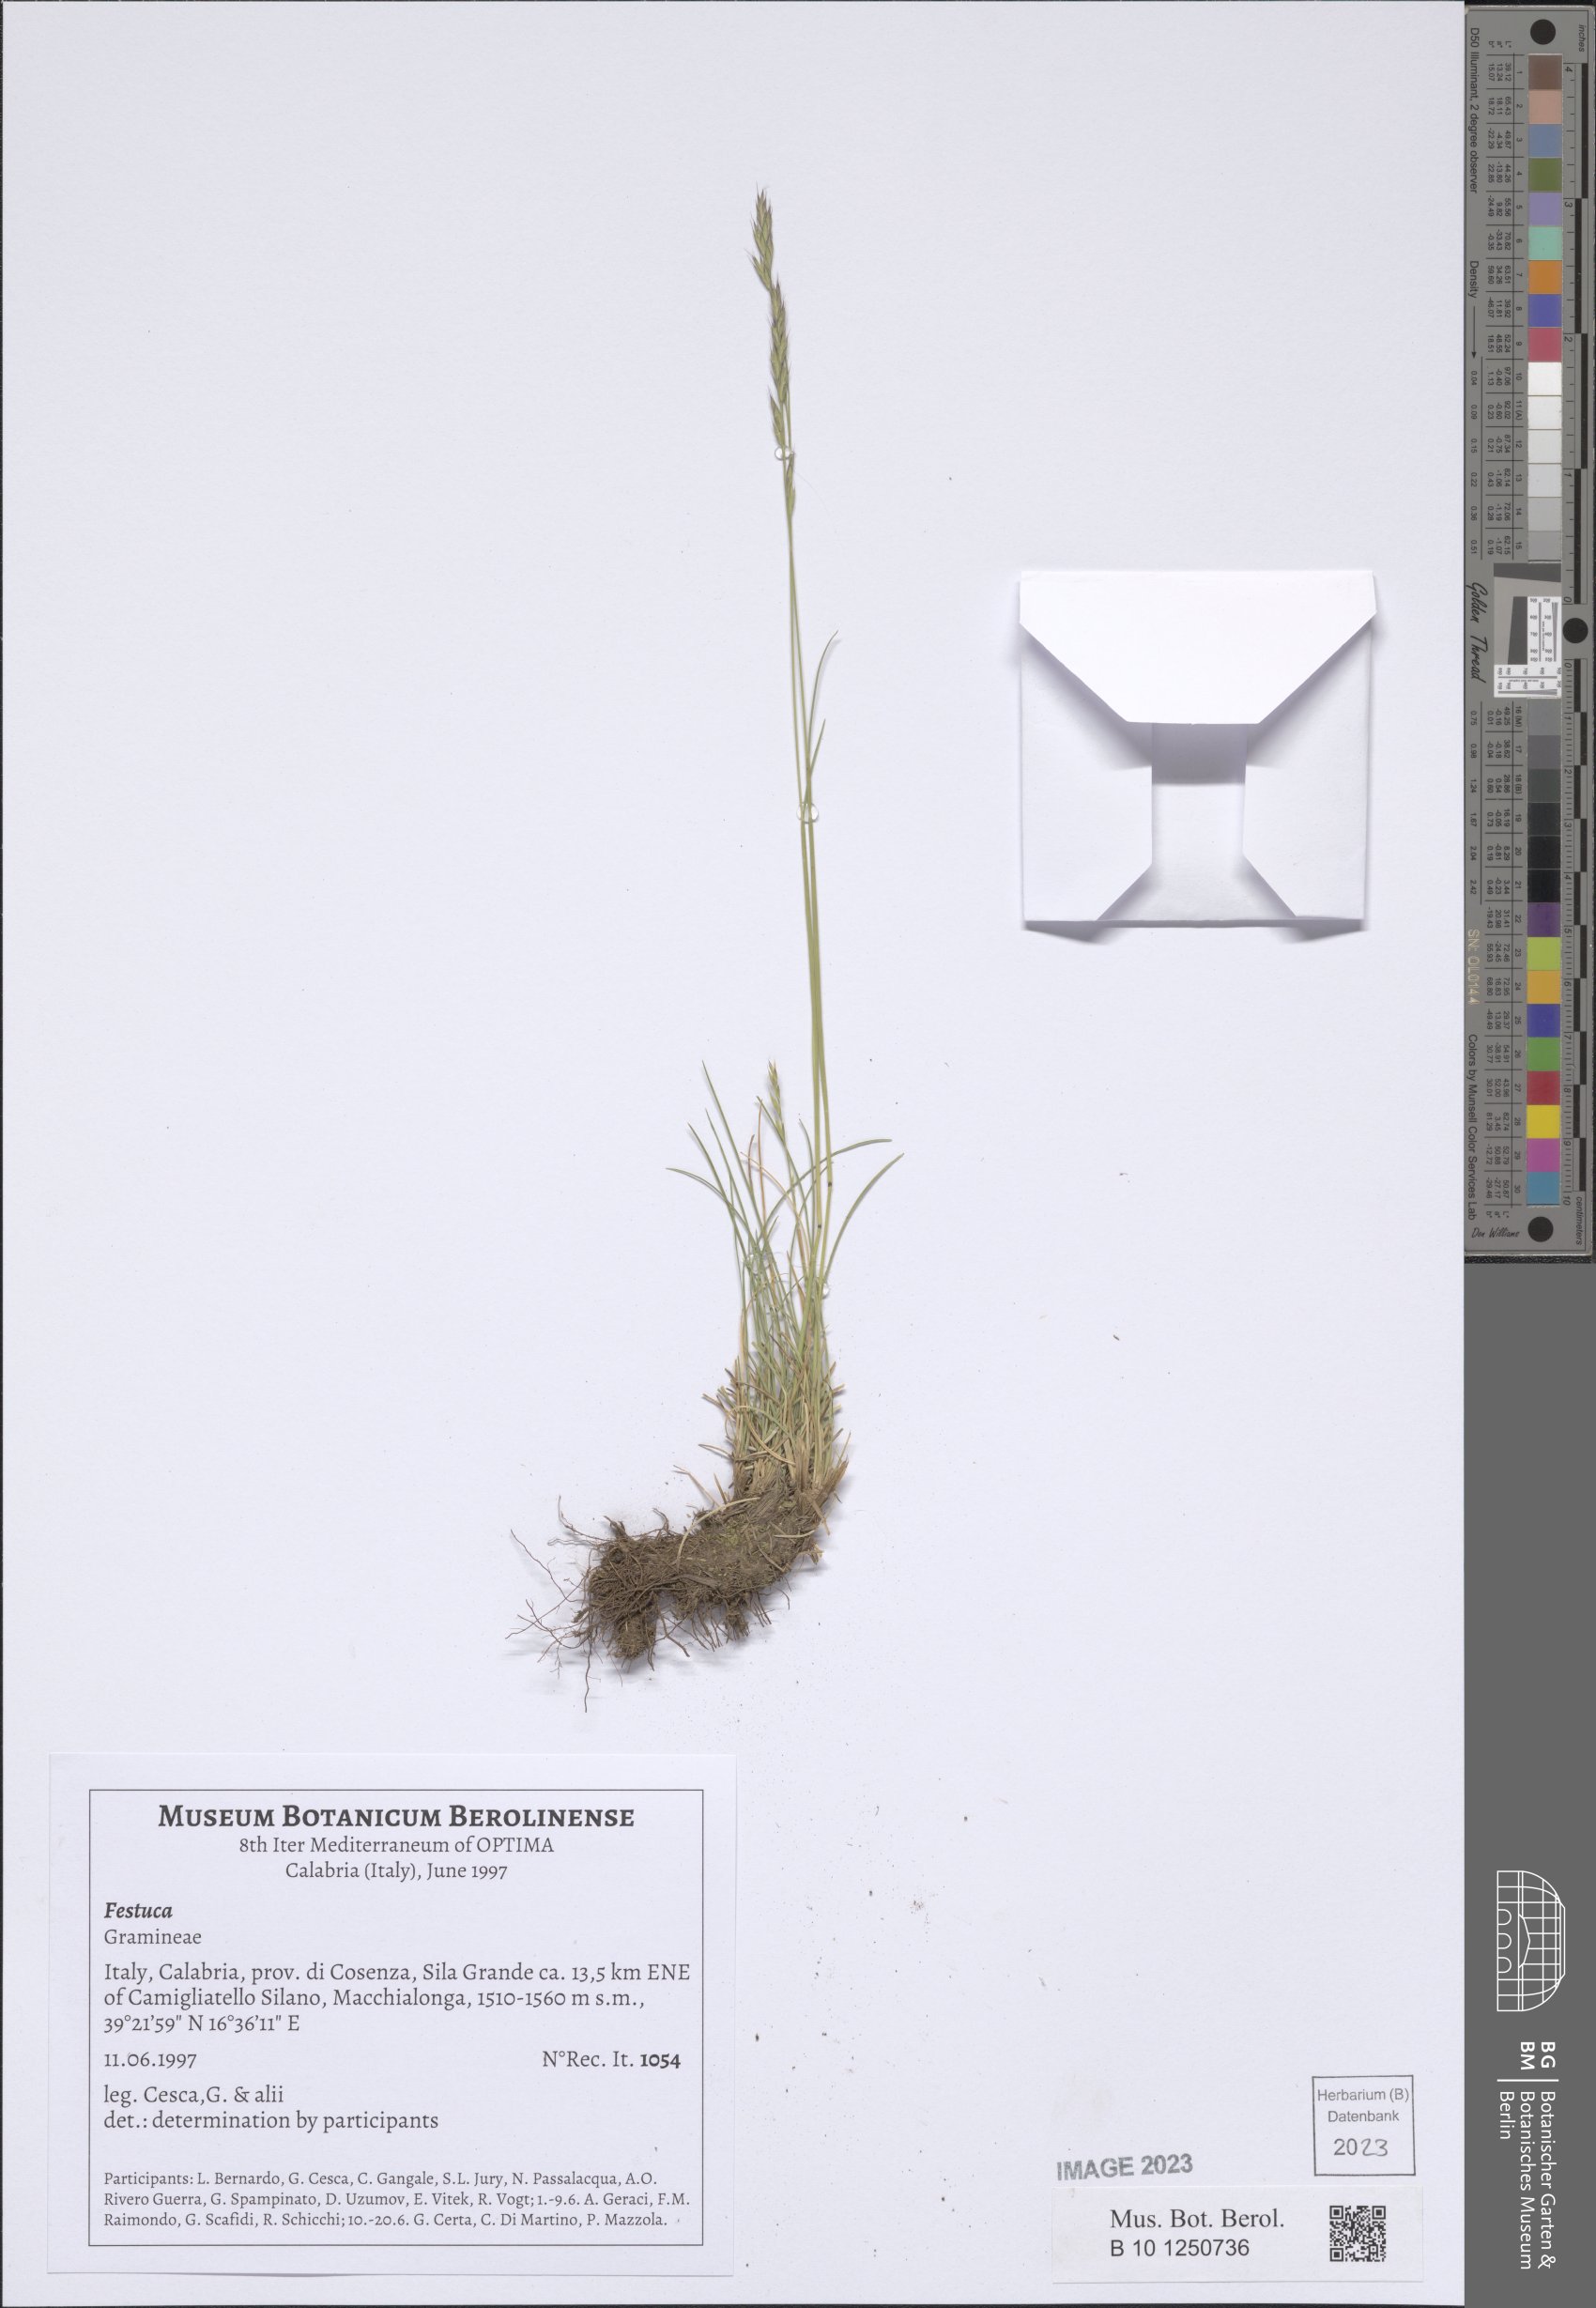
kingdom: Plantae
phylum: Tracheophyta
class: Liliopsida
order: Poales
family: Poaceae
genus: Festuca
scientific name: Festuca
